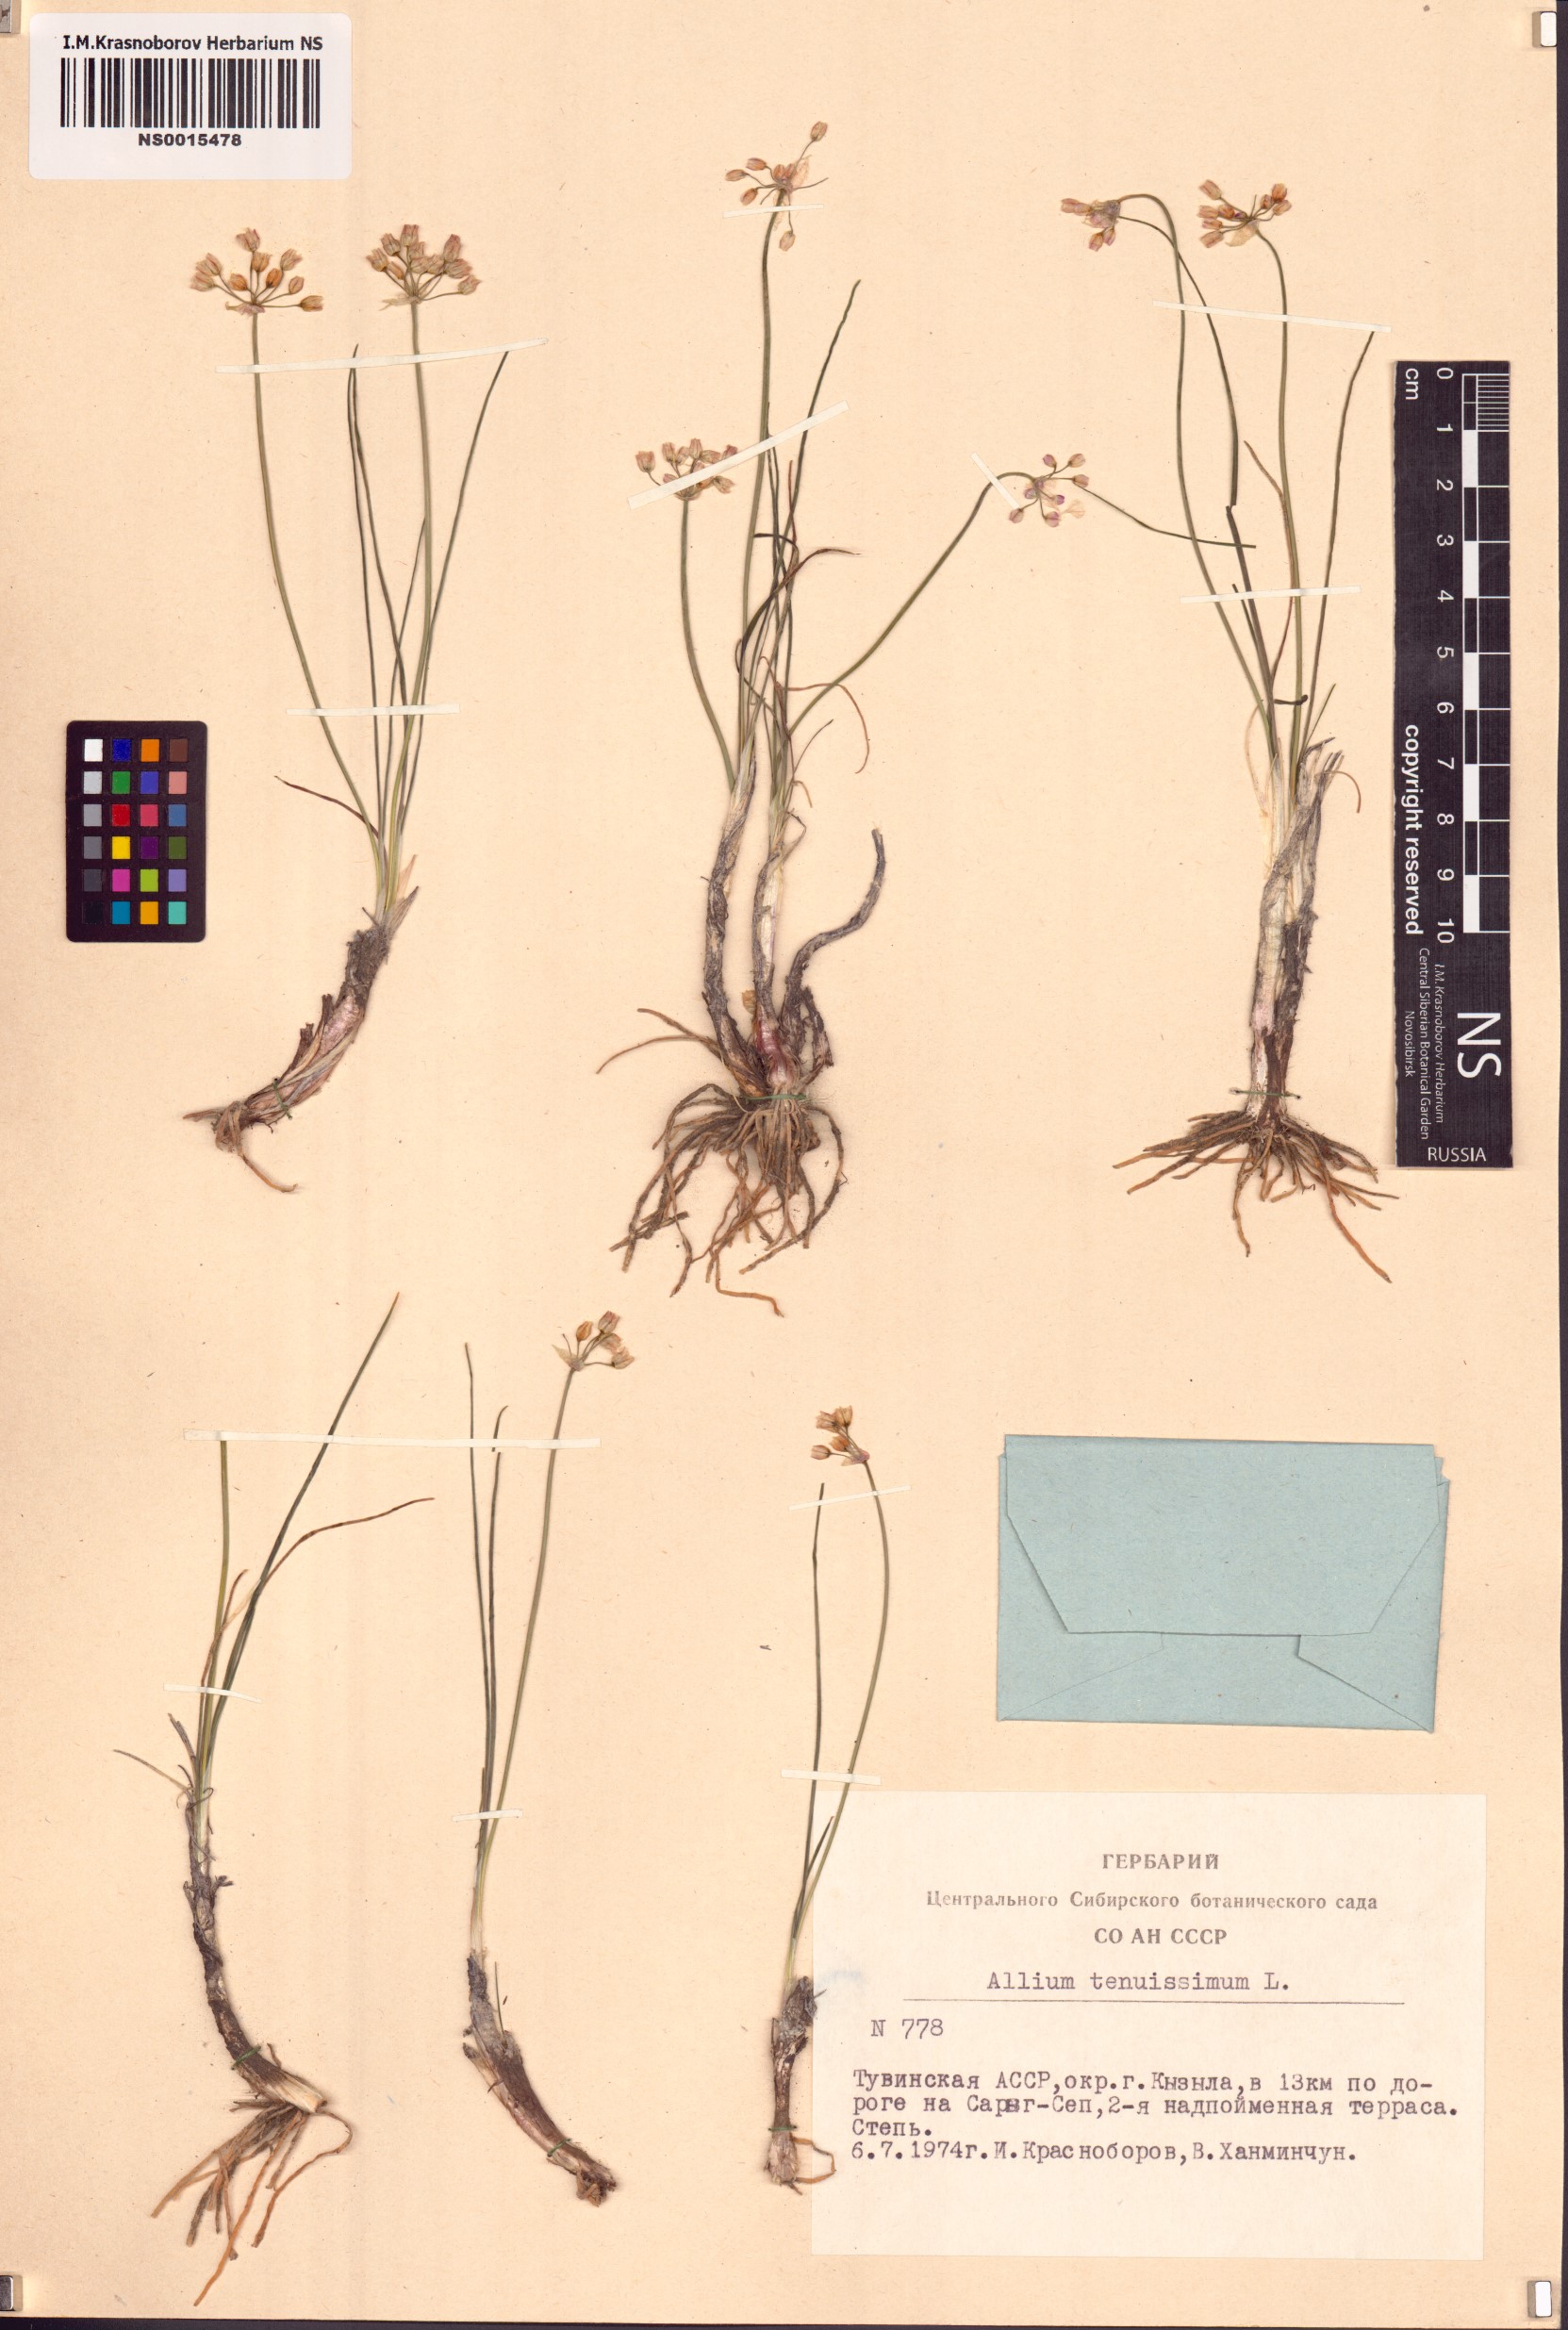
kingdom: Plantae
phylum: Tracheophyta
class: Liliopsida
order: Asparagales
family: Amaryllidaceae
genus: Allium
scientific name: Allium tenuissimum
